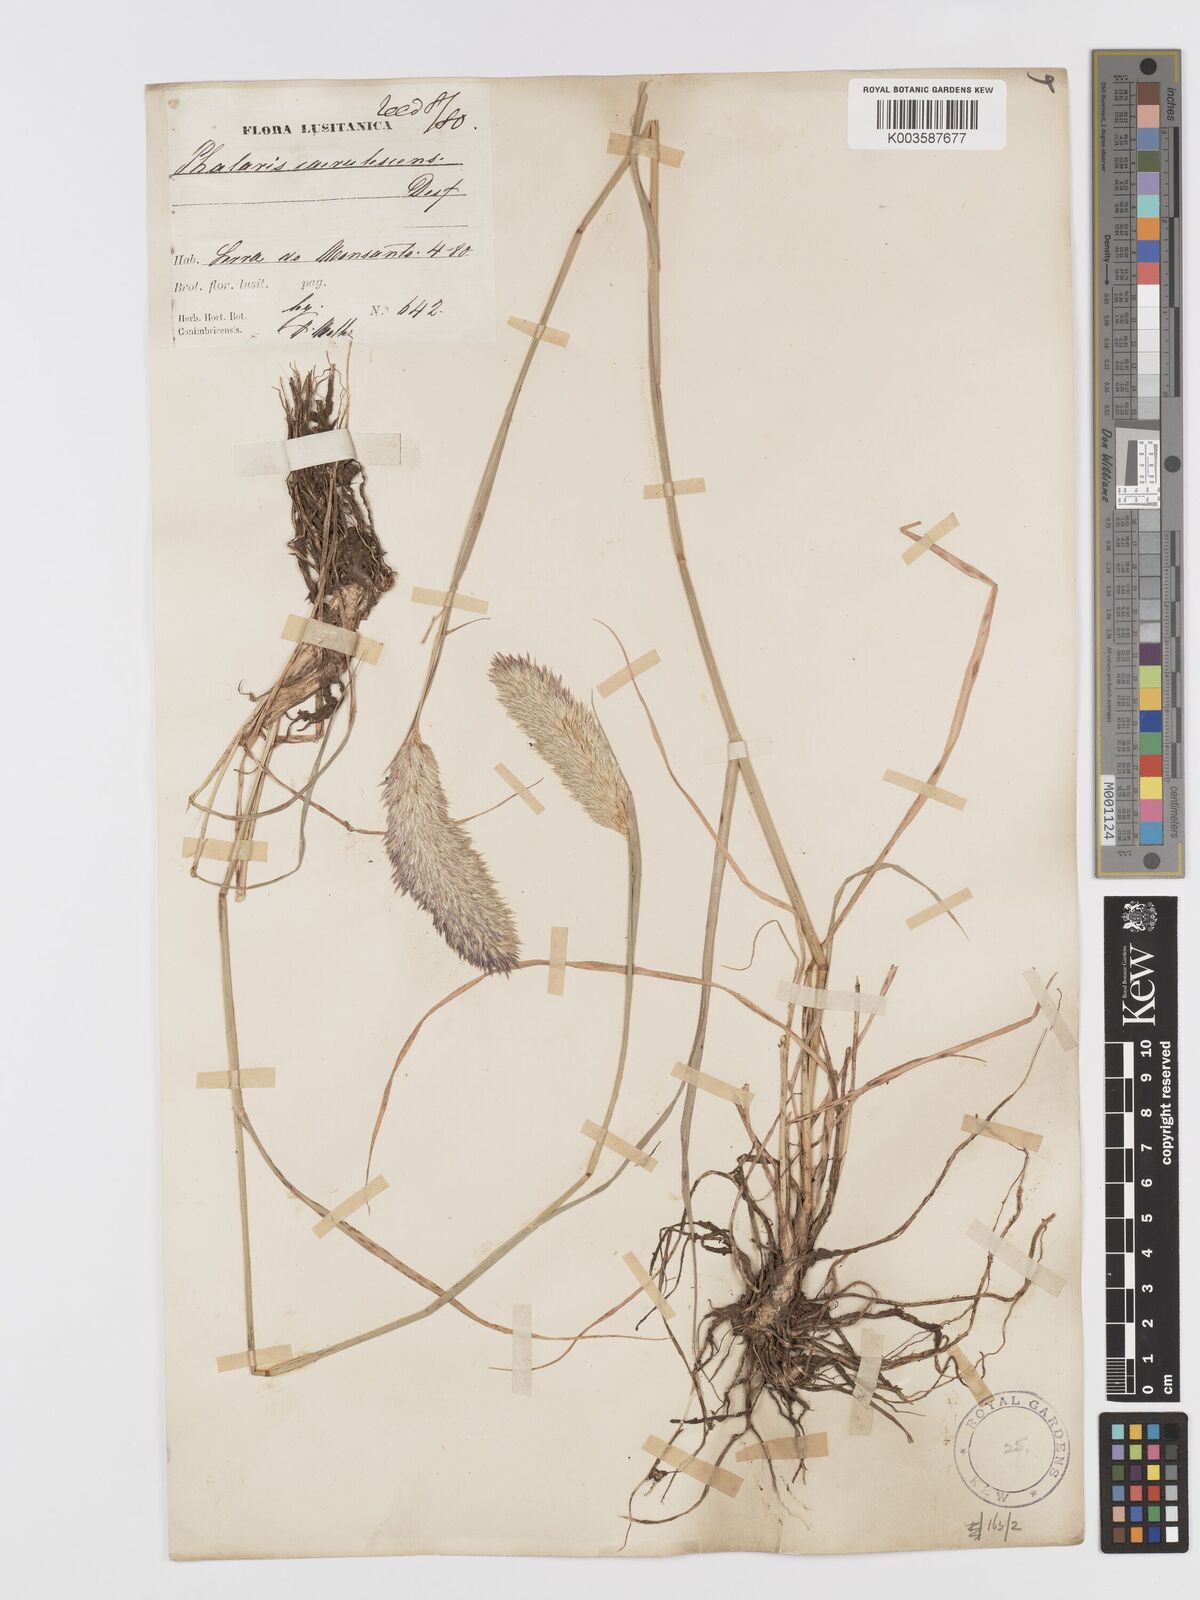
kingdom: Plantae
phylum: Tracheophyta
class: Liliopsida
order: Poales
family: Poaceae
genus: Phalaris
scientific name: Phalaris coerulescens
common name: Sunolgrass
